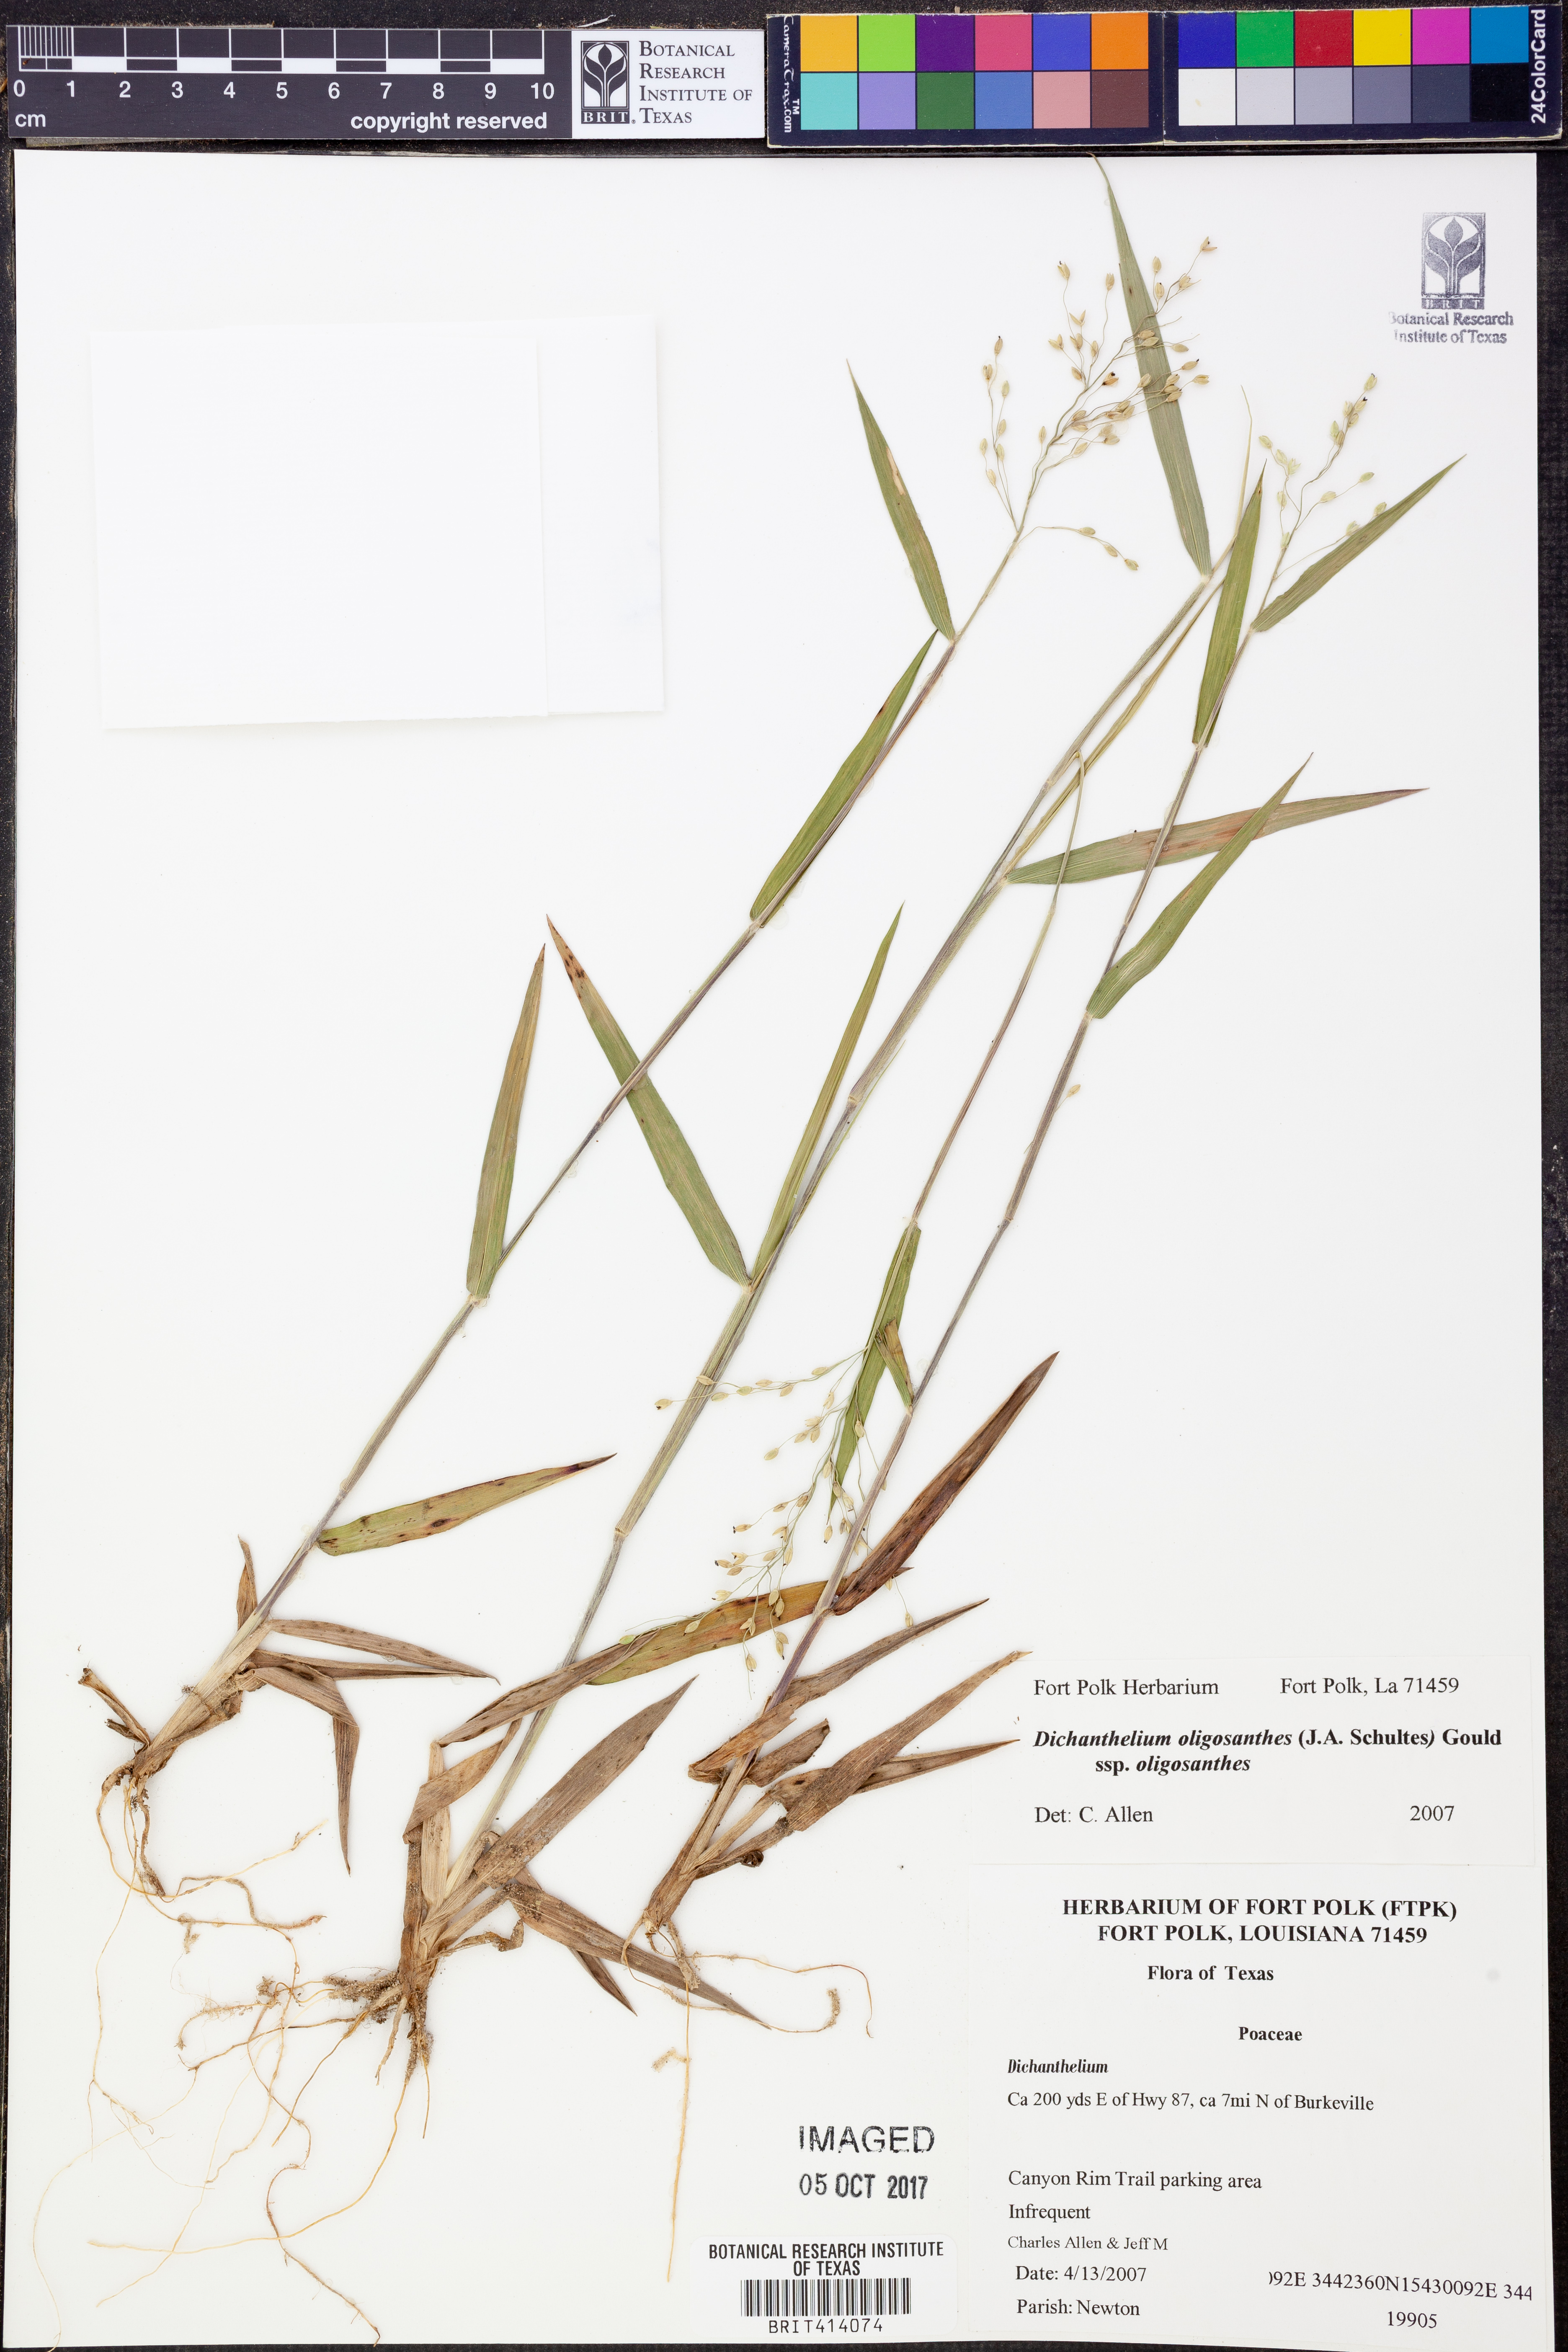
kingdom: Plantae
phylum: Tracheophyta
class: Liliopsida
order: Poales
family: Poaceae
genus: Dichanthelium
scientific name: Dichanthelium oligosanthes
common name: Few-anther obscuregrass
